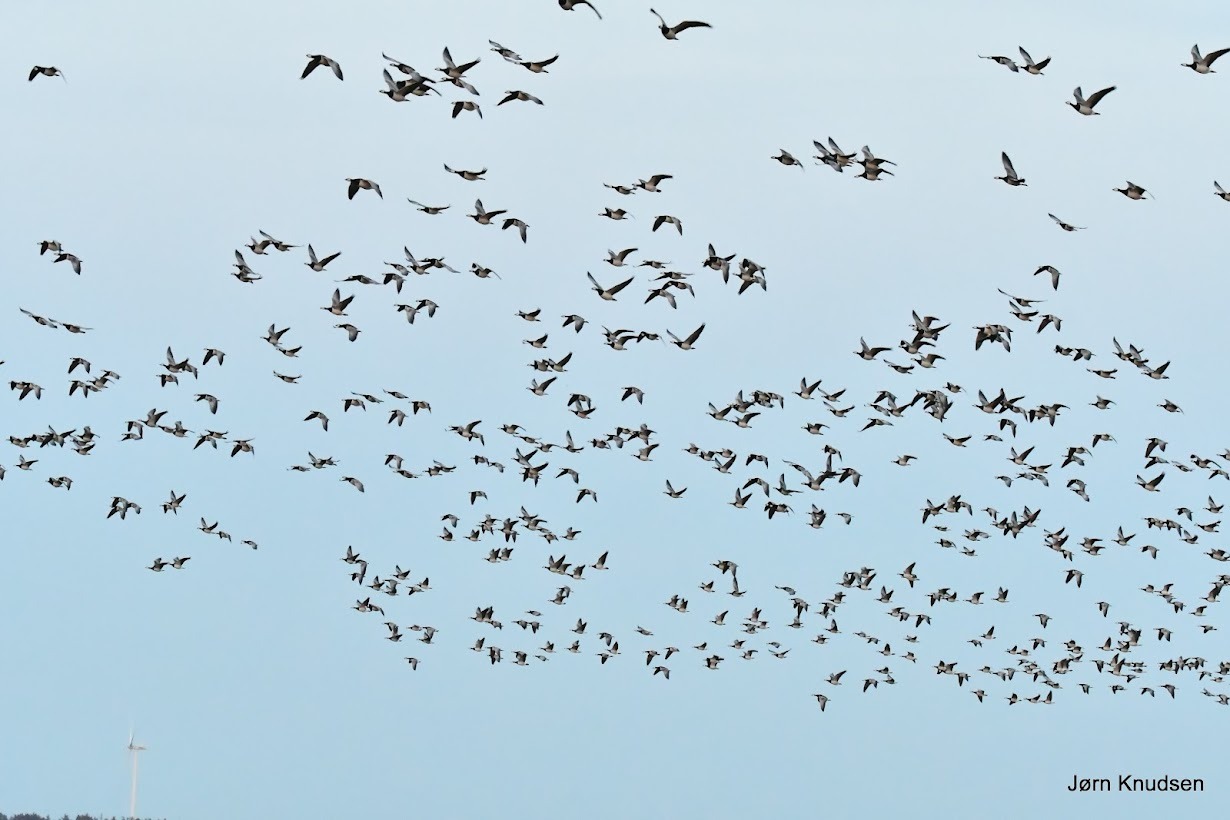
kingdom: Animalia
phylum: Chordata
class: Aves
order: Anseriformes
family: Anatidae
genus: Branta
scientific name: Branta leucopsis
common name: Bramgås
